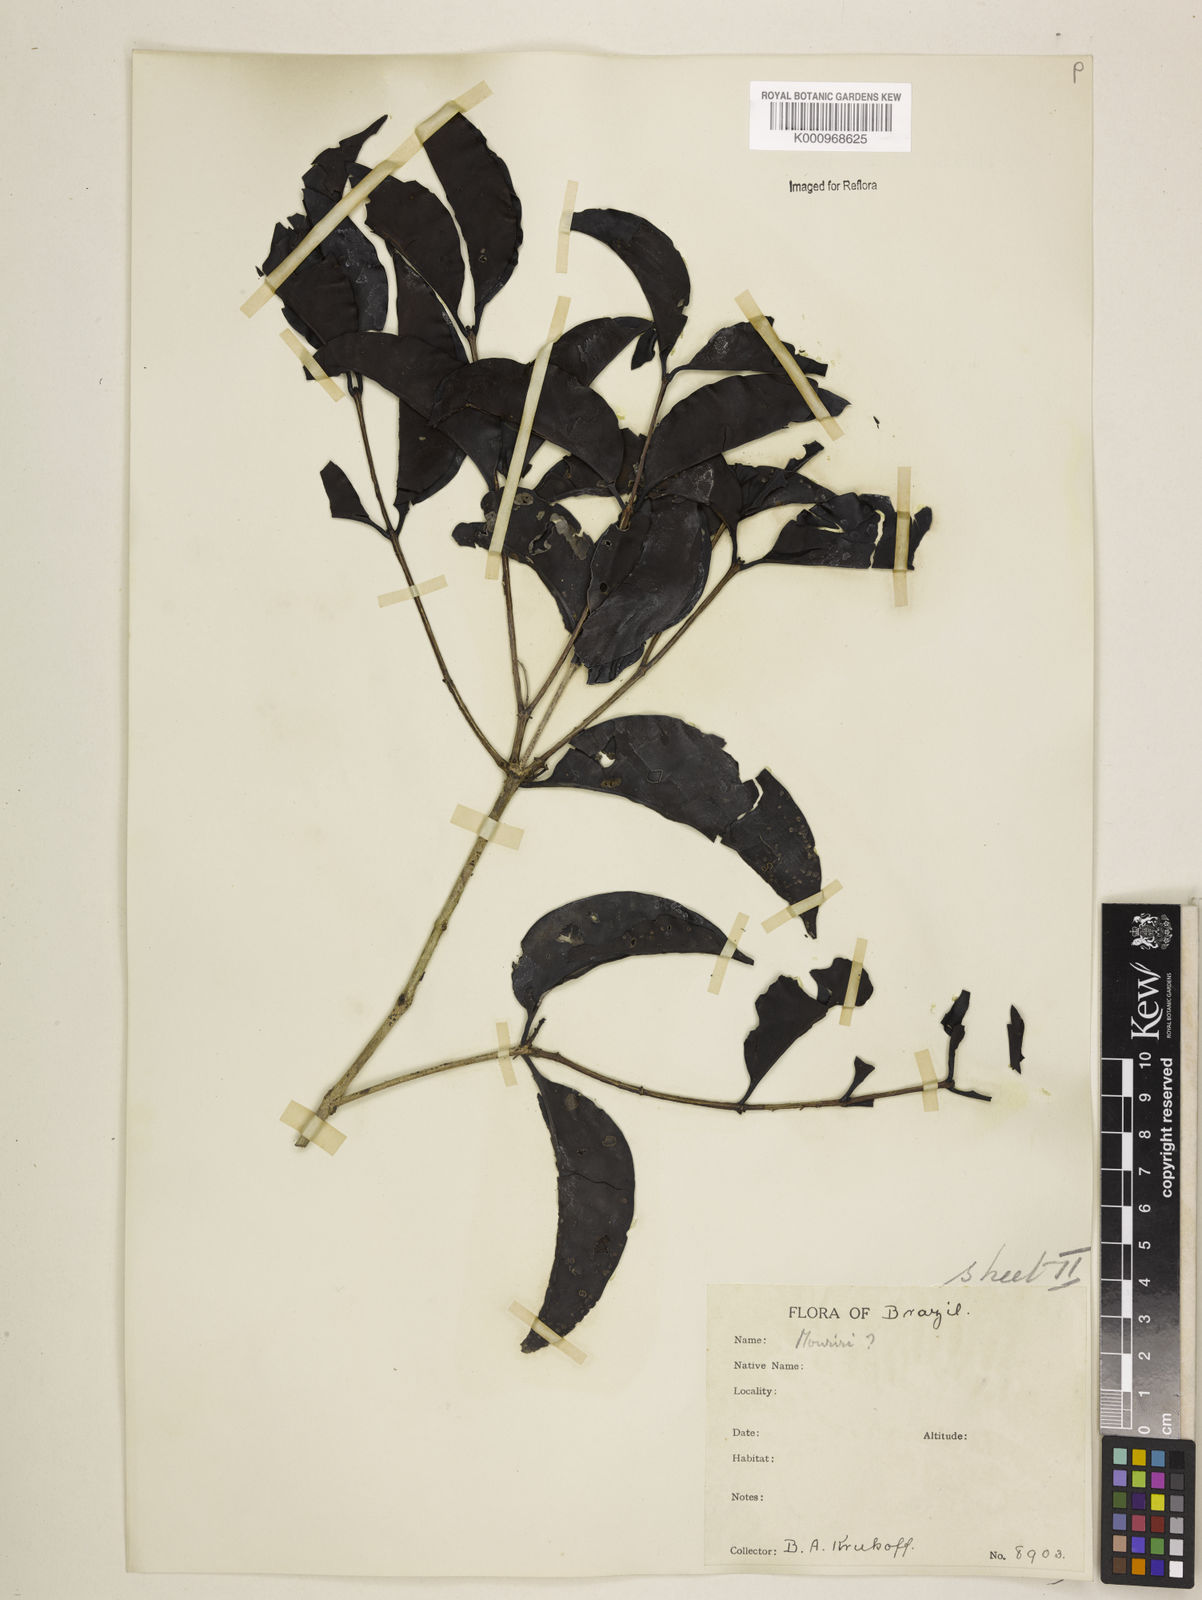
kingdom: Plantae
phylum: Tracheophyta
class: Magnoliopsida
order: Myrtales
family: Melastomataceae
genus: Mouriri
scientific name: Mouriri vernicosa
